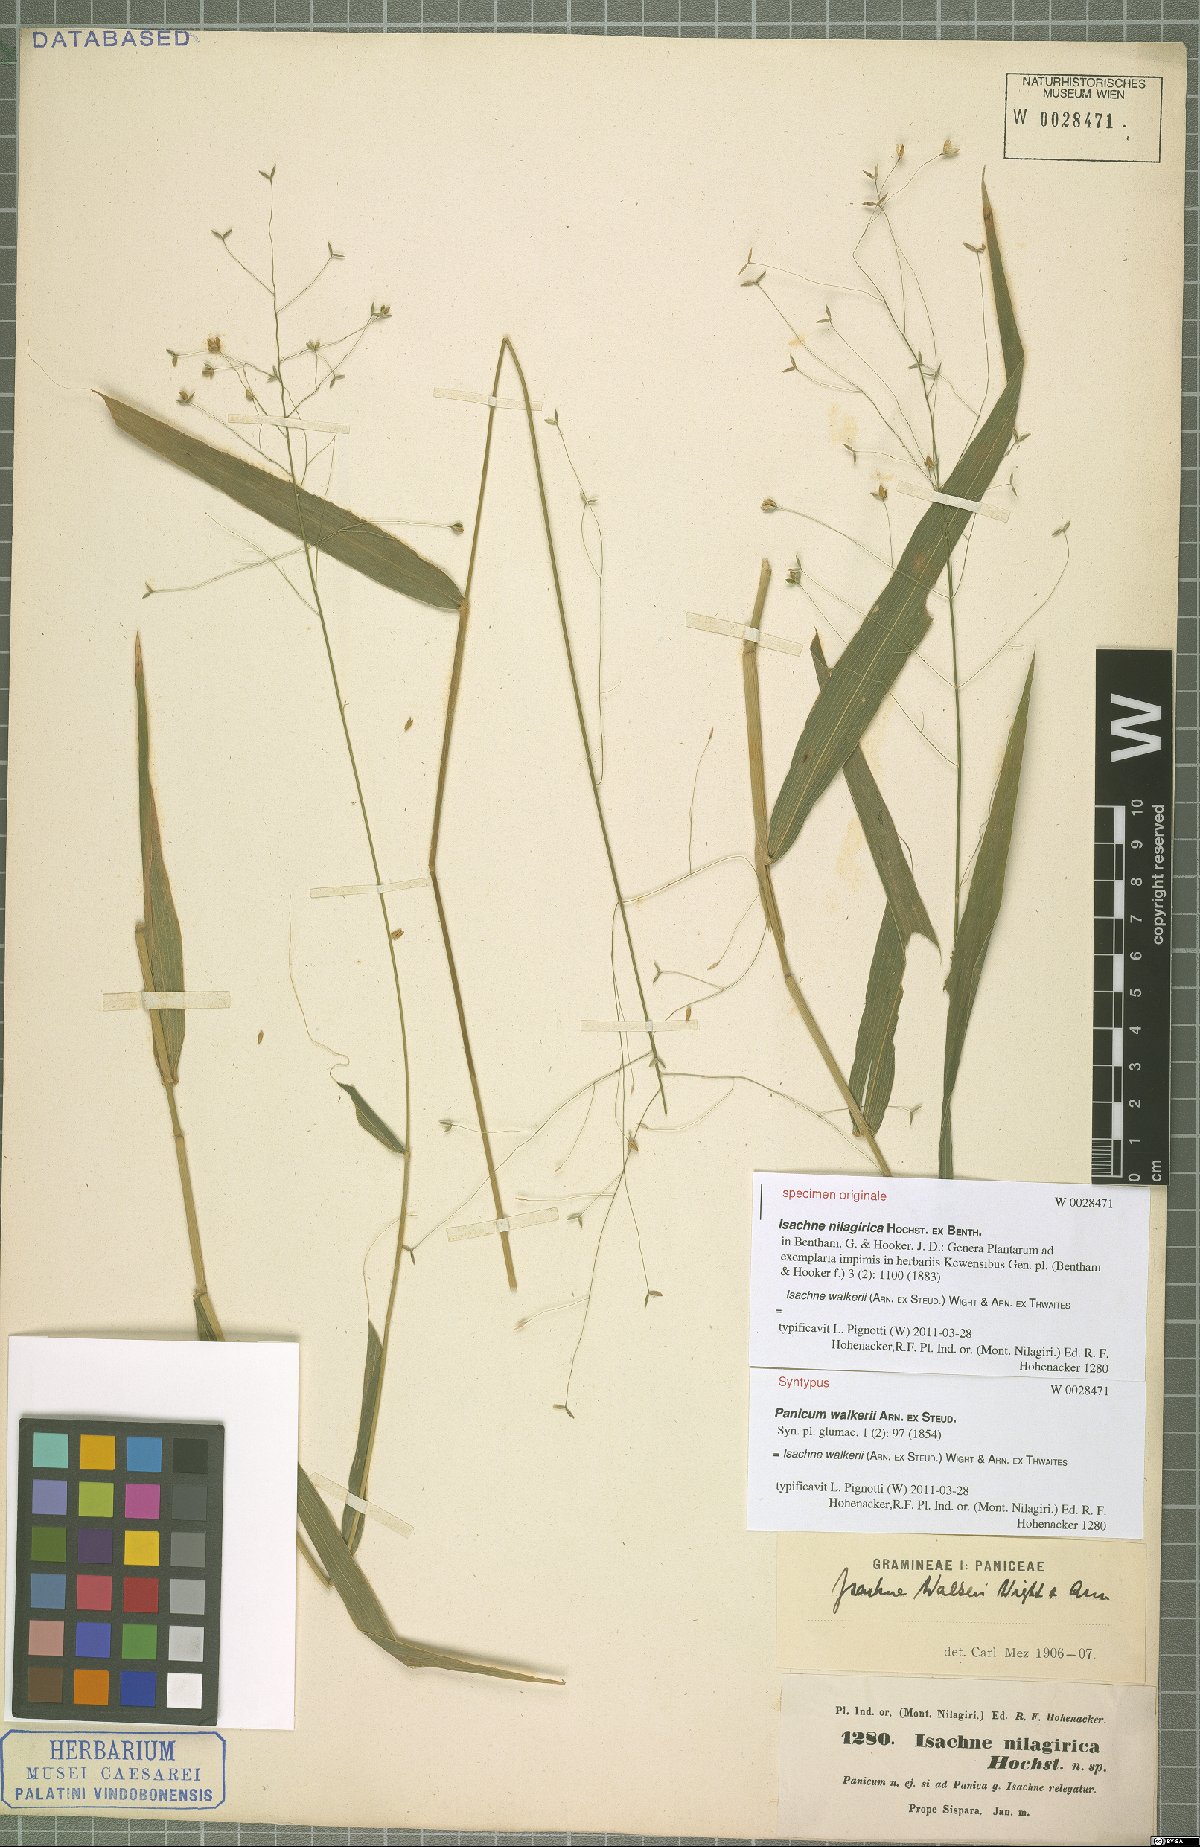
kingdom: Plantae
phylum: Tracheophyta
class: Liliopsida
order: Poales
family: Poaceae
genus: Isachne
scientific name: Isachne walkeri
